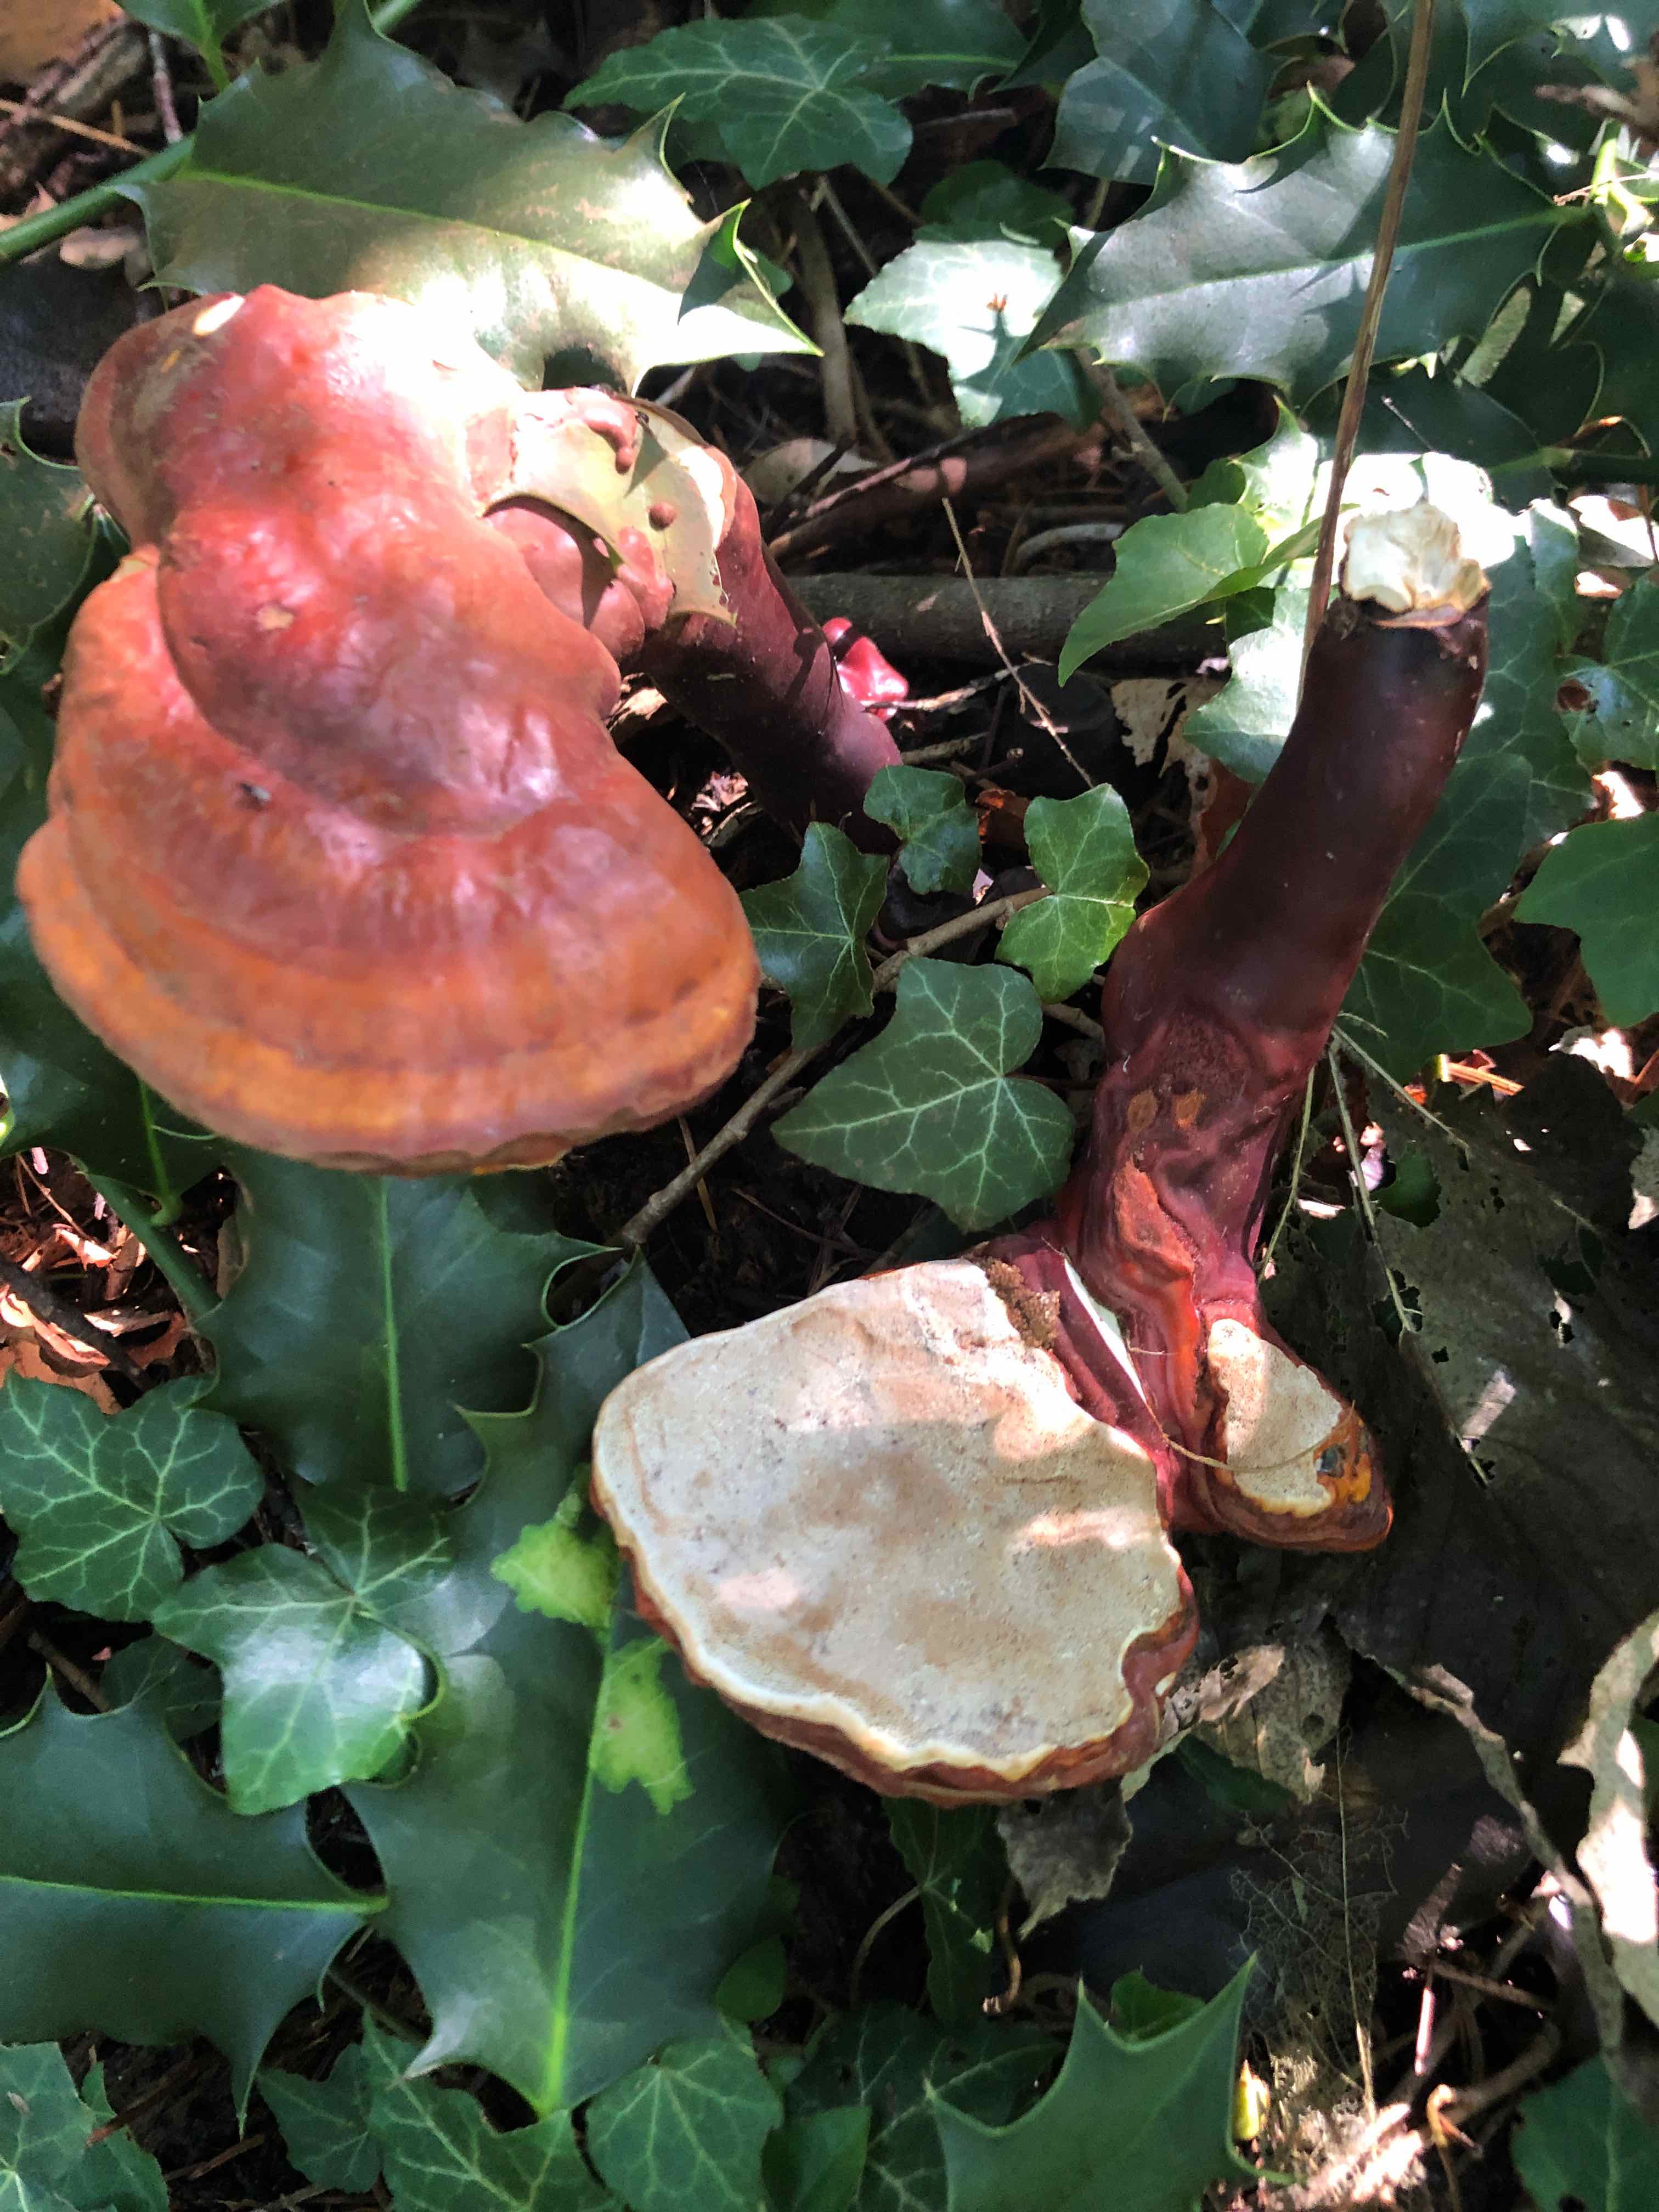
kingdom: Fungi
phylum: Basidiomycota
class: Agaricomycetes
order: Polyporales
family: Polyporaceae
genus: Ganoderma
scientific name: Ganoderma lucidum
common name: skinnende lakporesvamp
